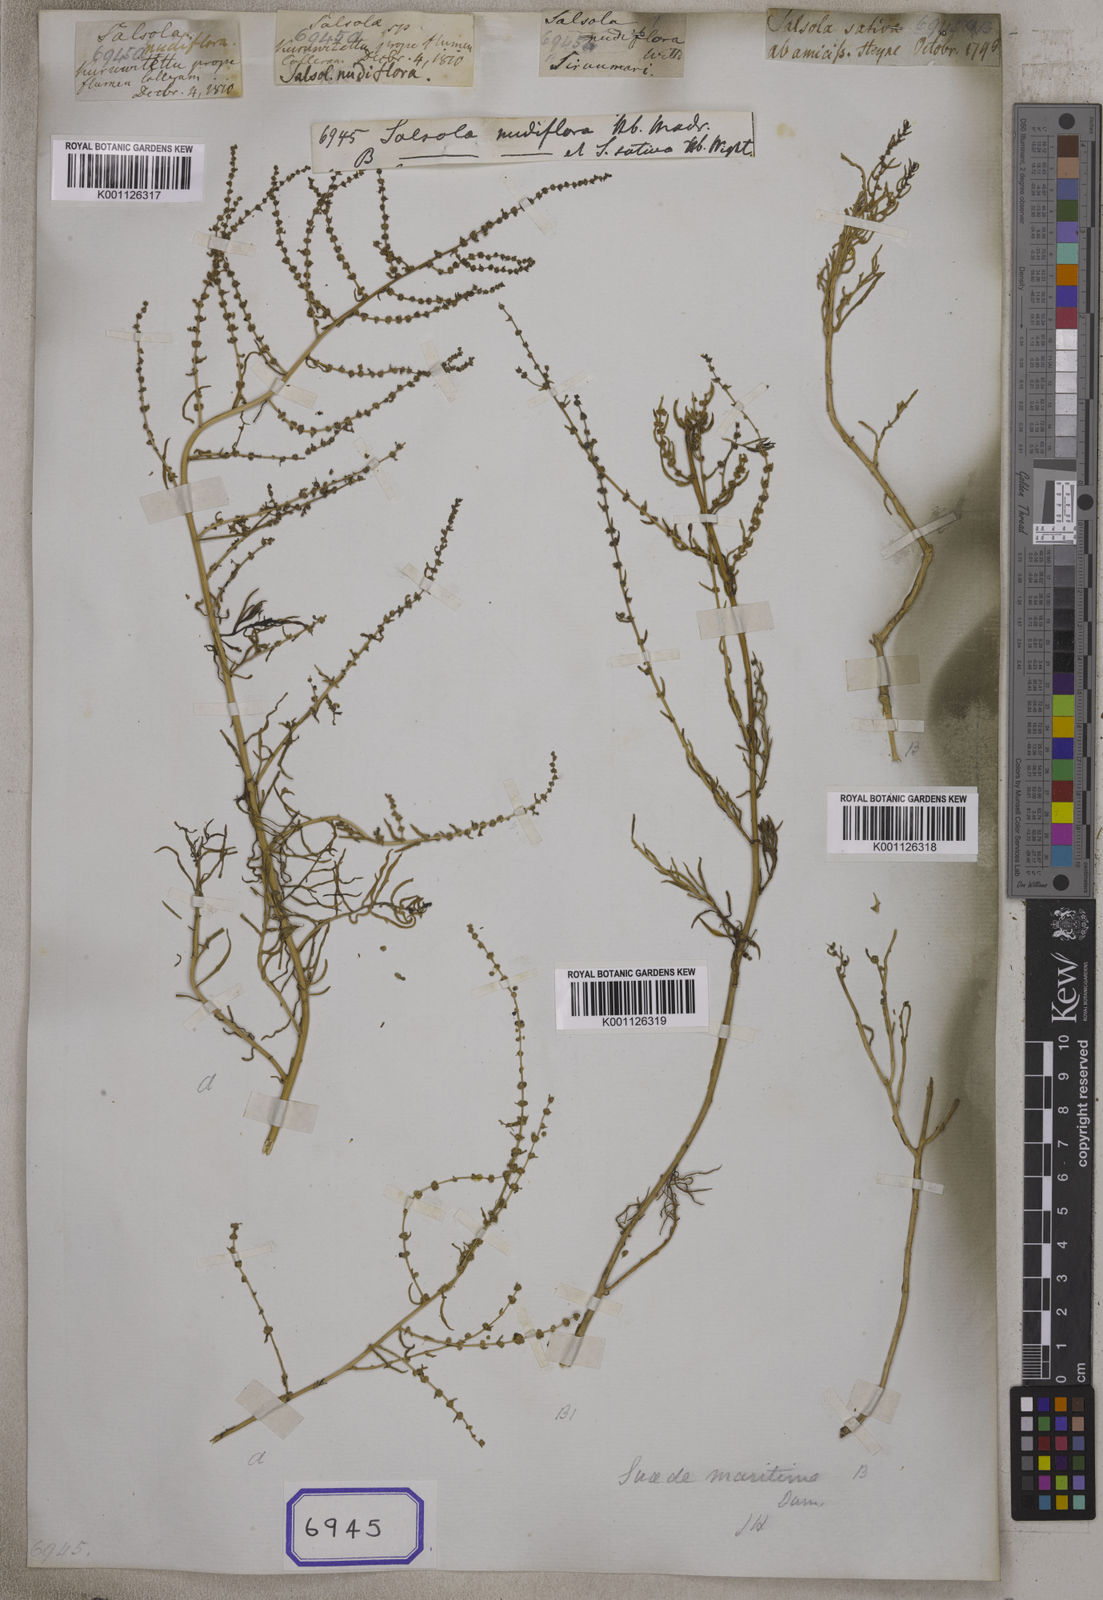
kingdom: Plantae
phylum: Tracheophyta
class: Magnoliopsida
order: Caryophyllales
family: Amaranthaceae
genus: Salsola
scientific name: Salsola
